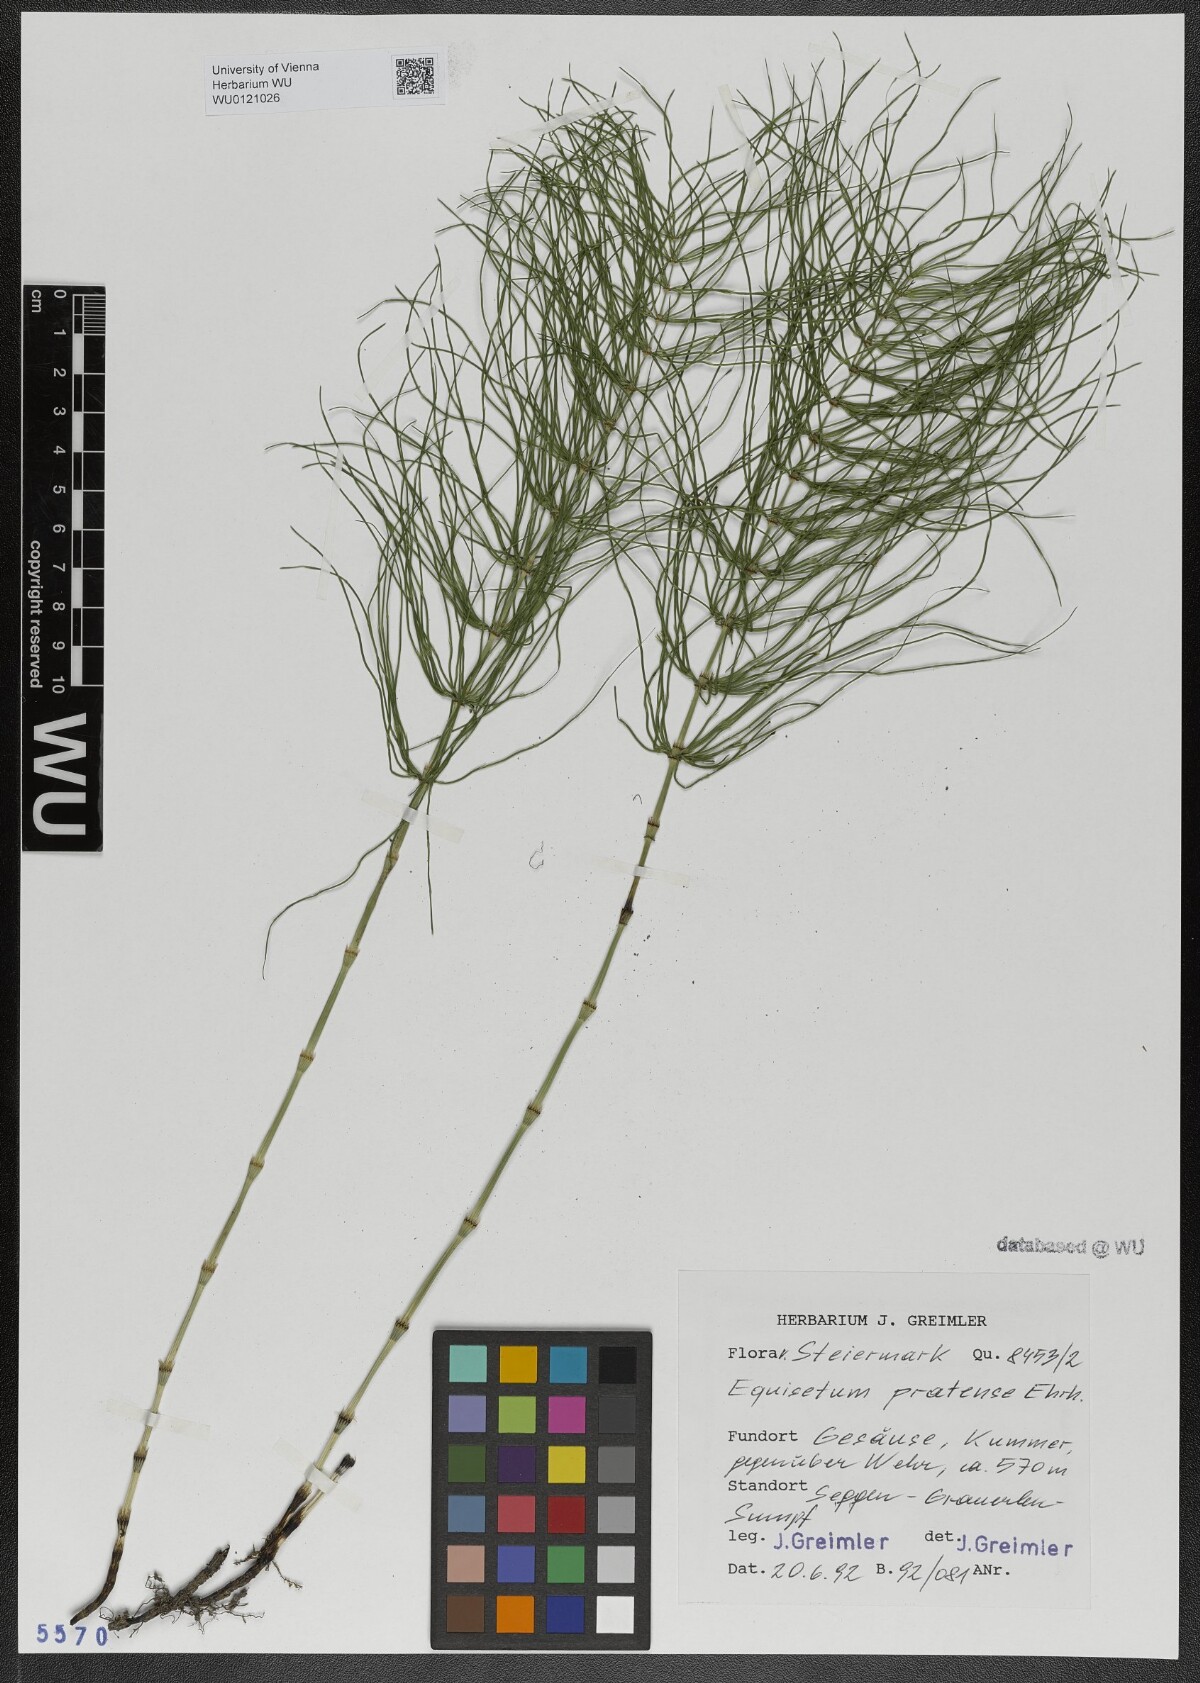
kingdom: Plantae
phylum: Tracheophyta
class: Polypodiopsida
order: Equisetales
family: Equisetaceae
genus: Equisetum
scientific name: Equisetum pratense
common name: Meadow horsetail
